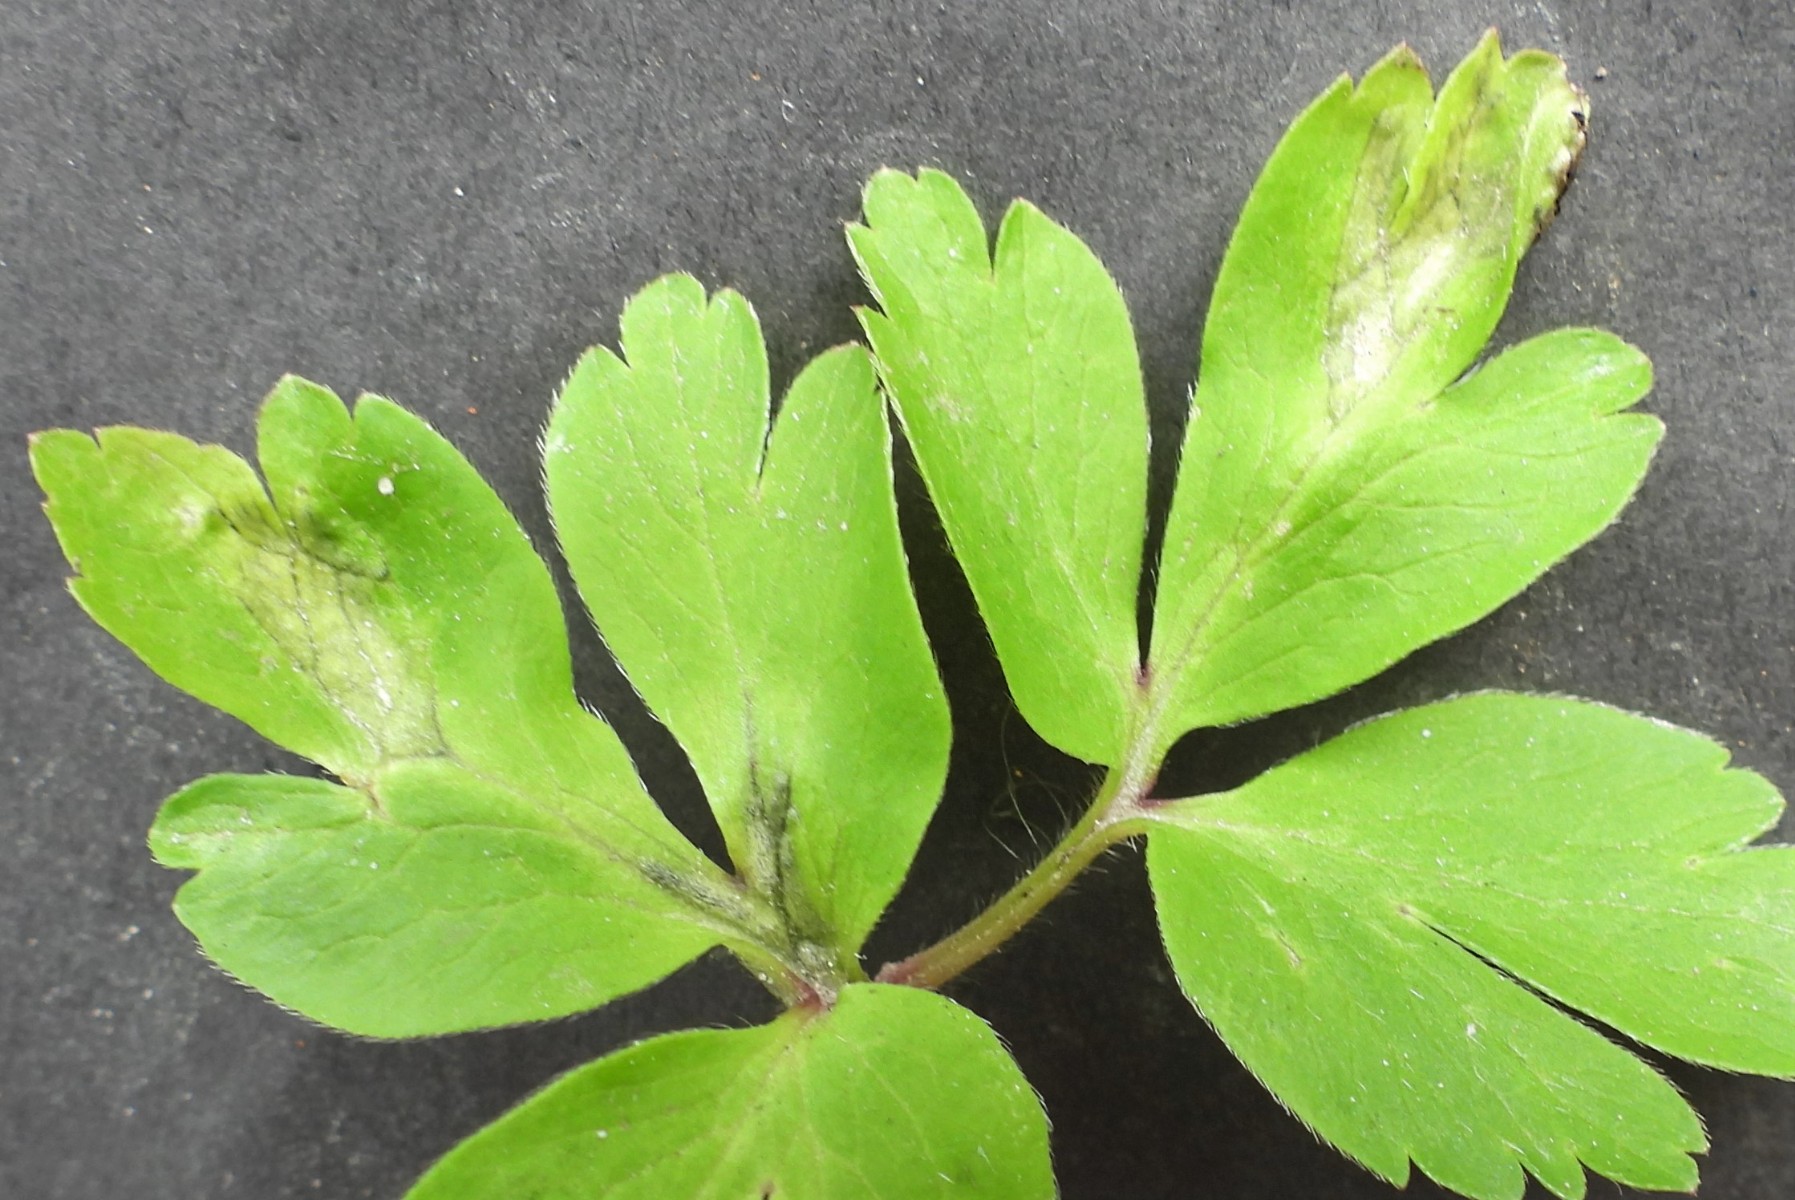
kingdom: Fungi
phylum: Basidiomycota
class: Ustilaginomycetes
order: Urocystidales
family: Urocystidaceae
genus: Urocystis
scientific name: Urocystis anemones
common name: anemone-brand
